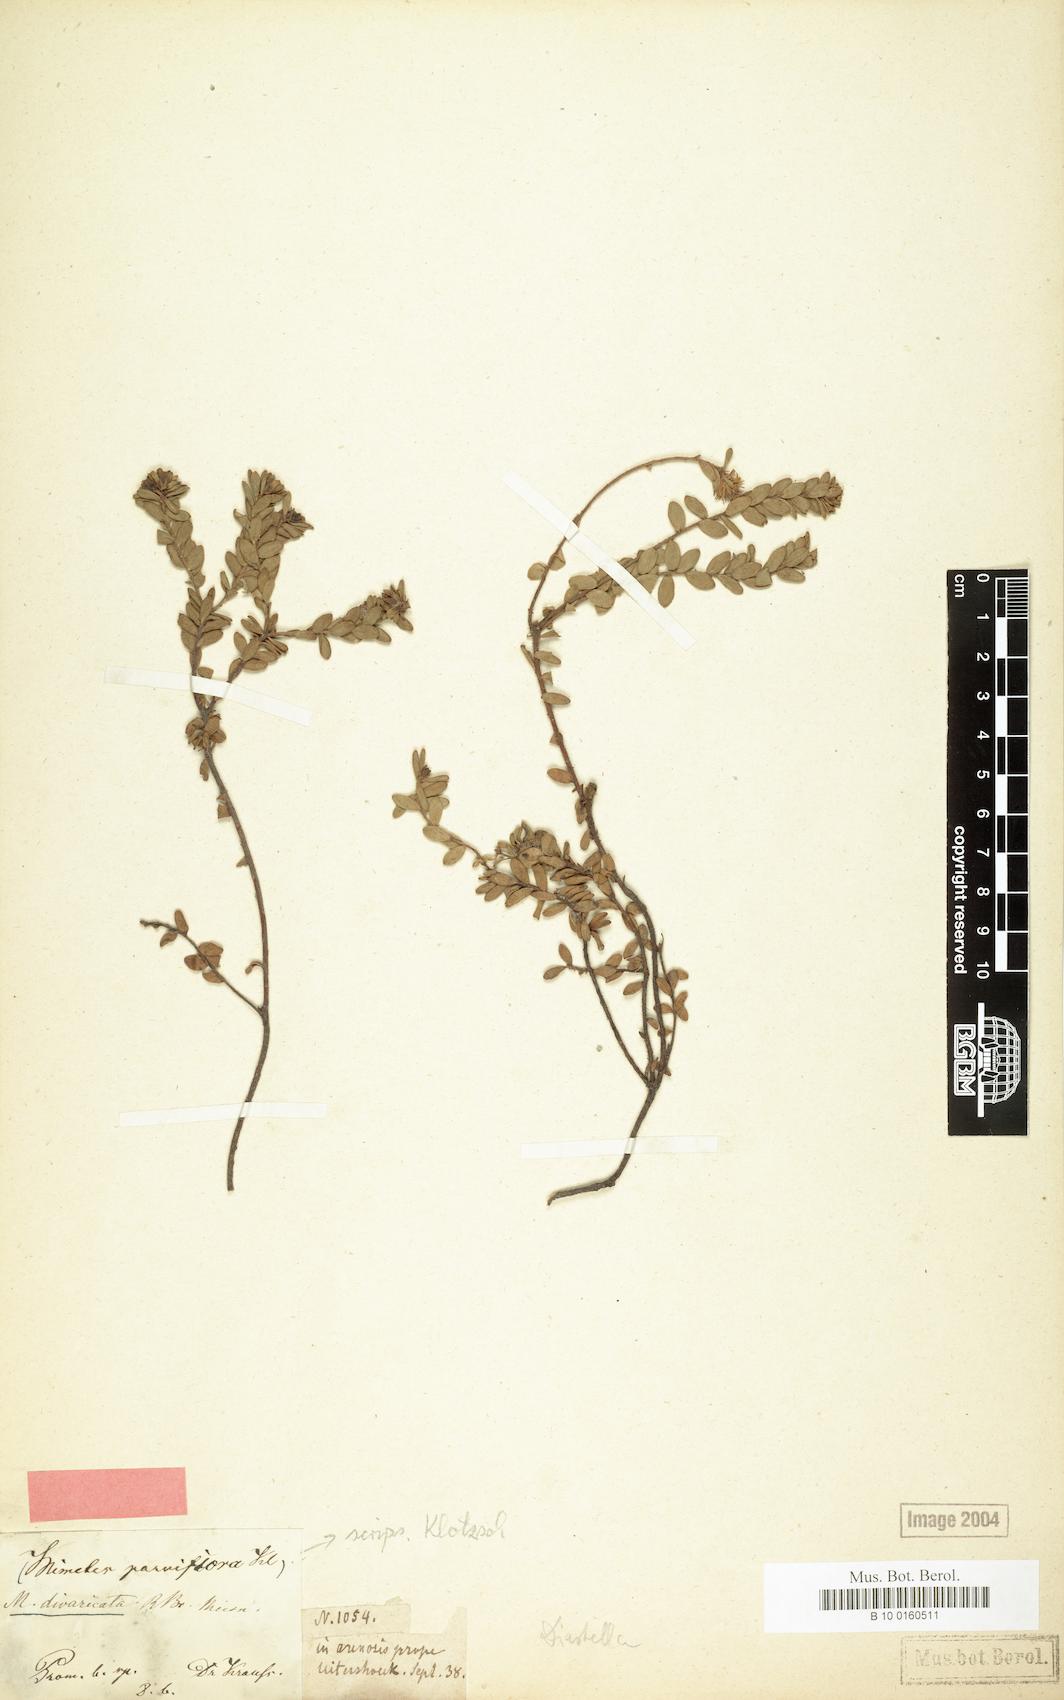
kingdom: Plantae
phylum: Tracheophyta
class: Magnoliopsida
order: Proteales
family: Proteaceae
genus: Diastella
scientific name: Diastella divaricata
